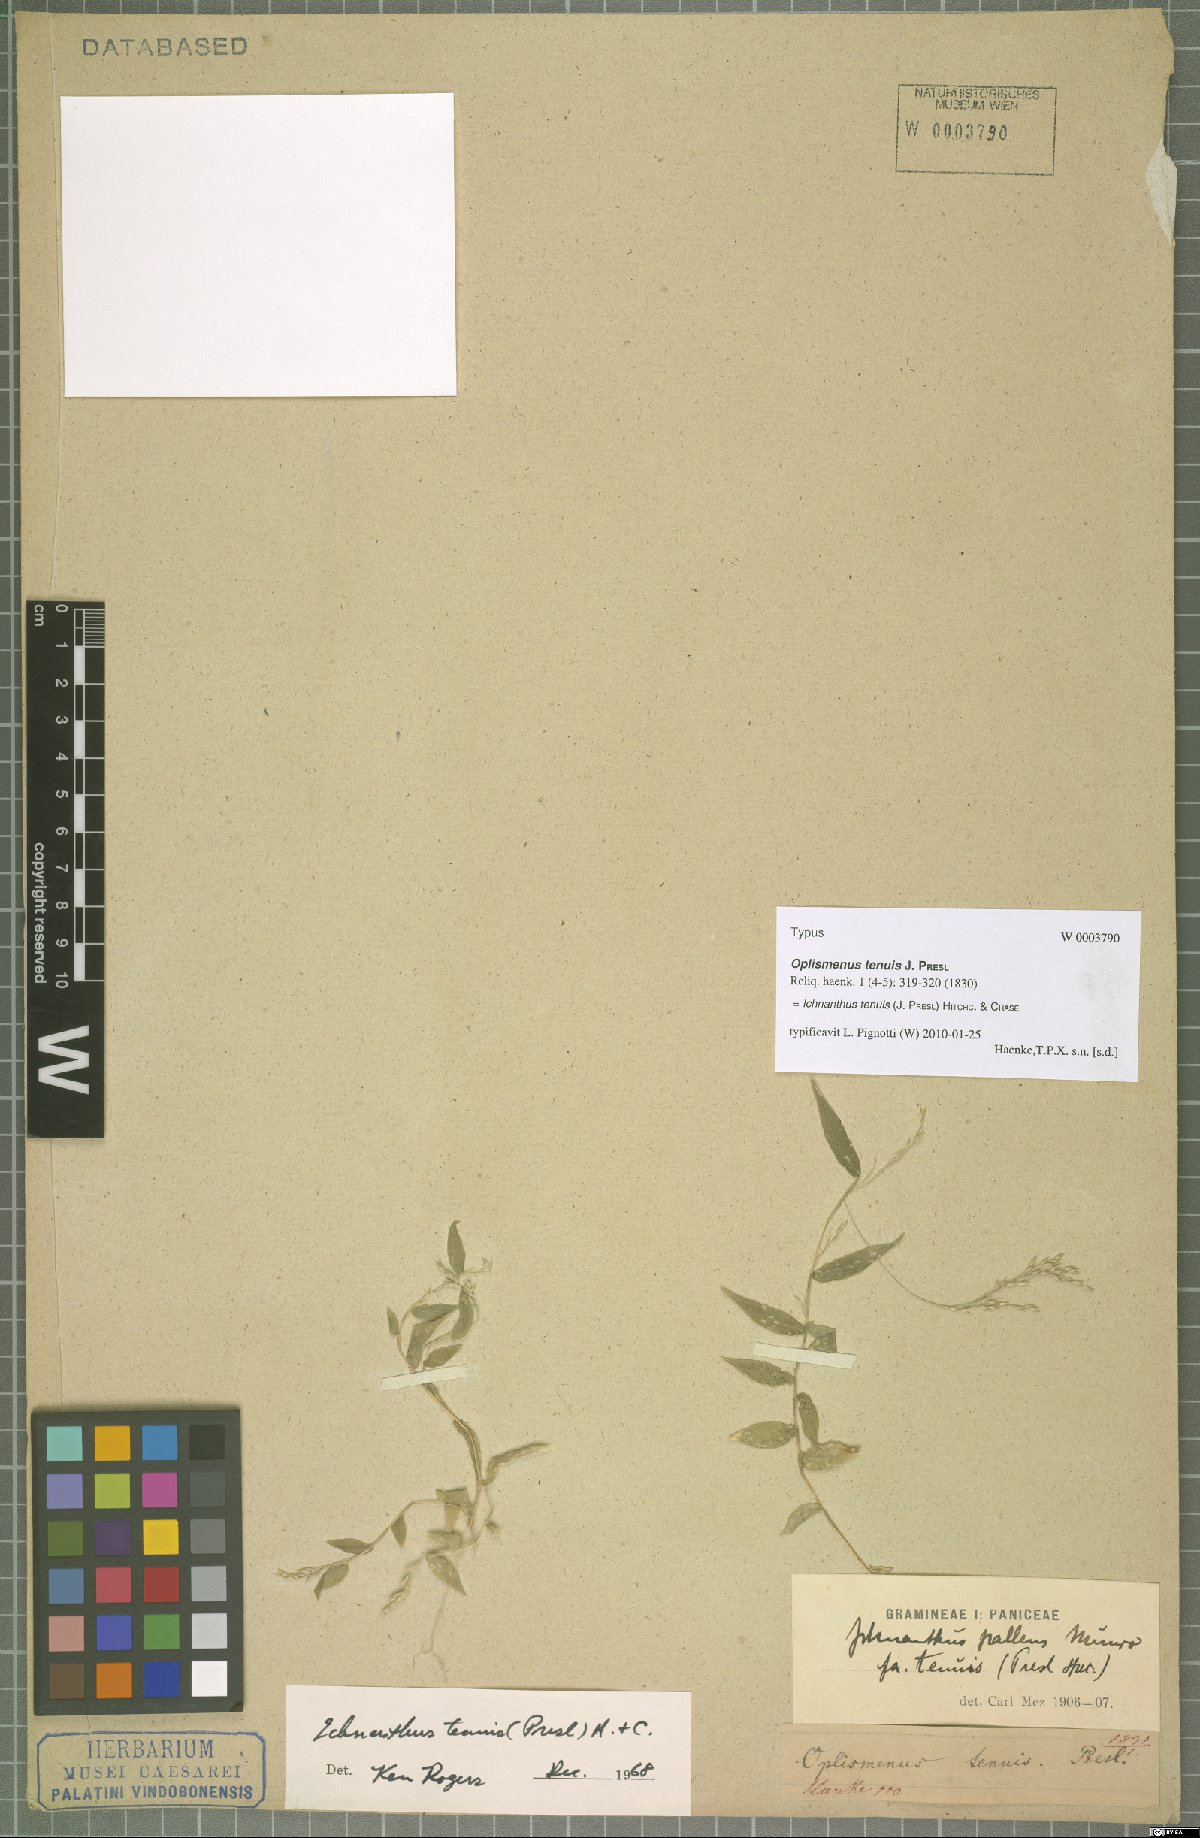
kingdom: Plantae
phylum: Tracheophyta
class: Liliopsida
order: Poales
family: Poaceae
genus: Ichnanthus
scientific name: Ichnanthus tenuis
